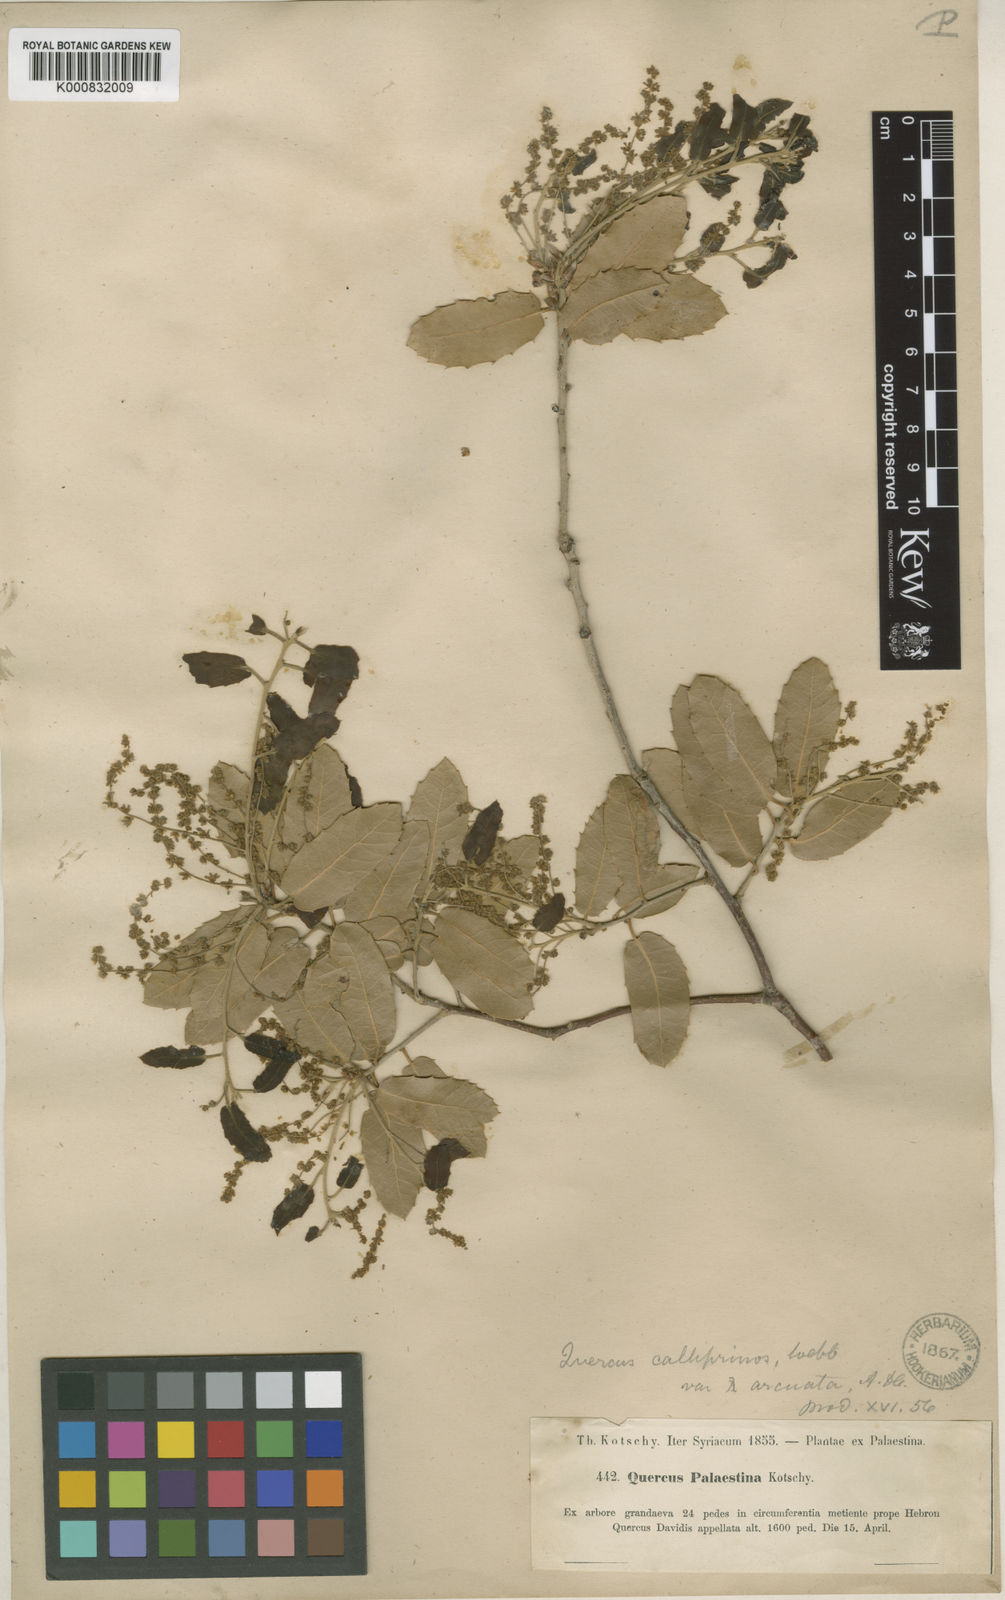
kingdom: Plantae
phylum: Tracheophyta
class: Magnoliopsida
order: Fagales
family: Fagaceae
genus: Quercus
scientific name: Quercus coccifera
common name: Kermes oak
